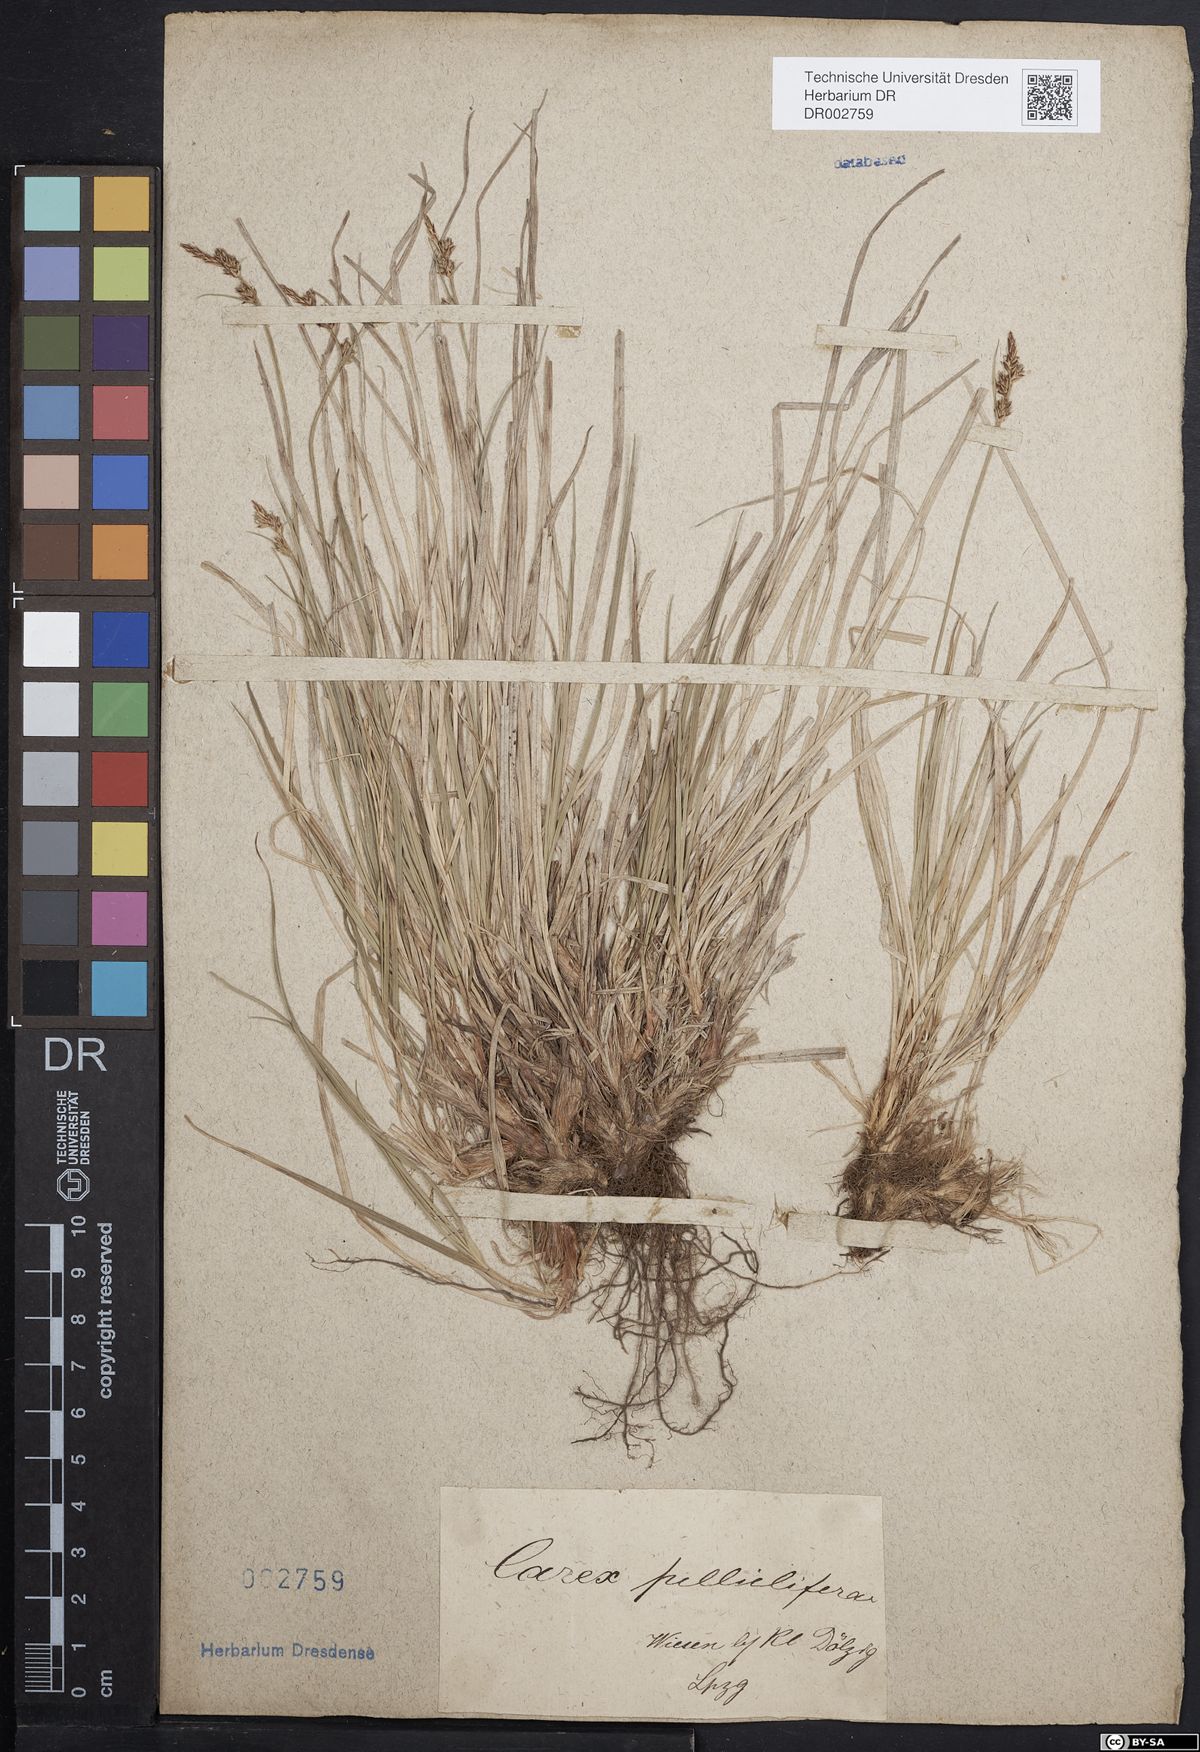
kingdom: Plantae
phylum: Tracheophyta
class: Liliopsida
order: Poales
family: Cyperaceae
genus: Carex
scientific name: Carex caryophyllea
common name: Spring sedge
